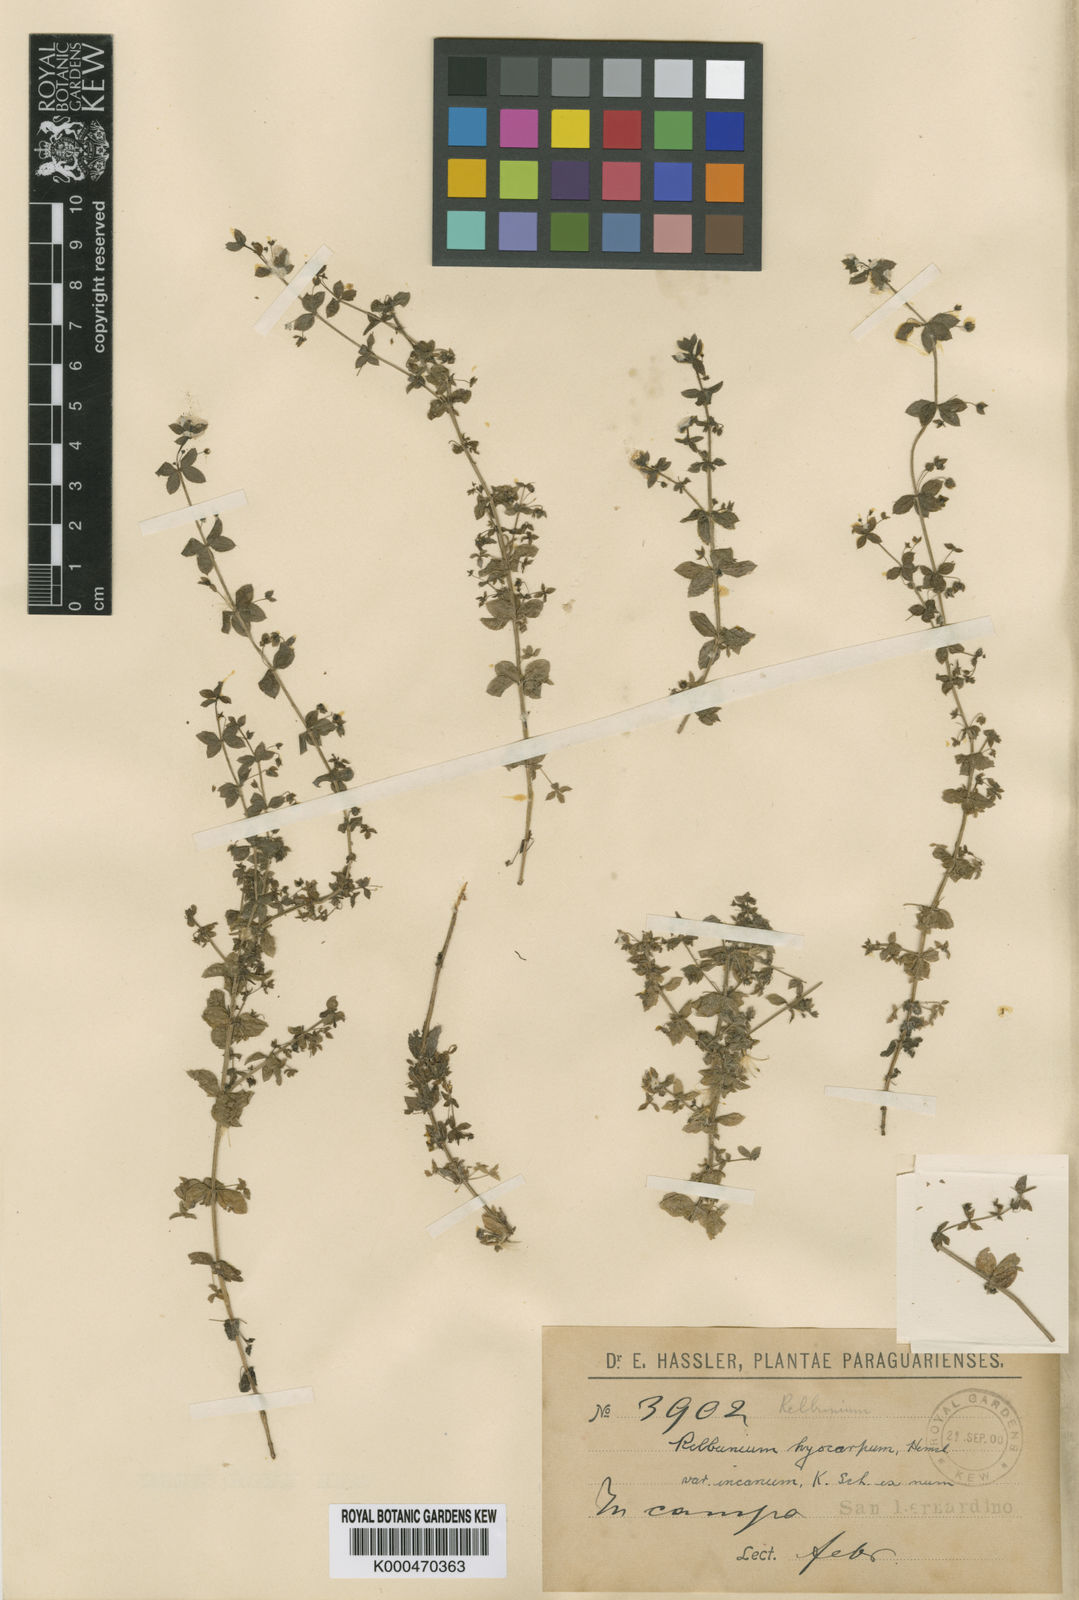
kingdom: Plantae
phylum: Tracheophyta
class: Magnoliopsida
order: Gentianales
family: Rubiaceae
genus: Galium
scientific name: Galium noxium
